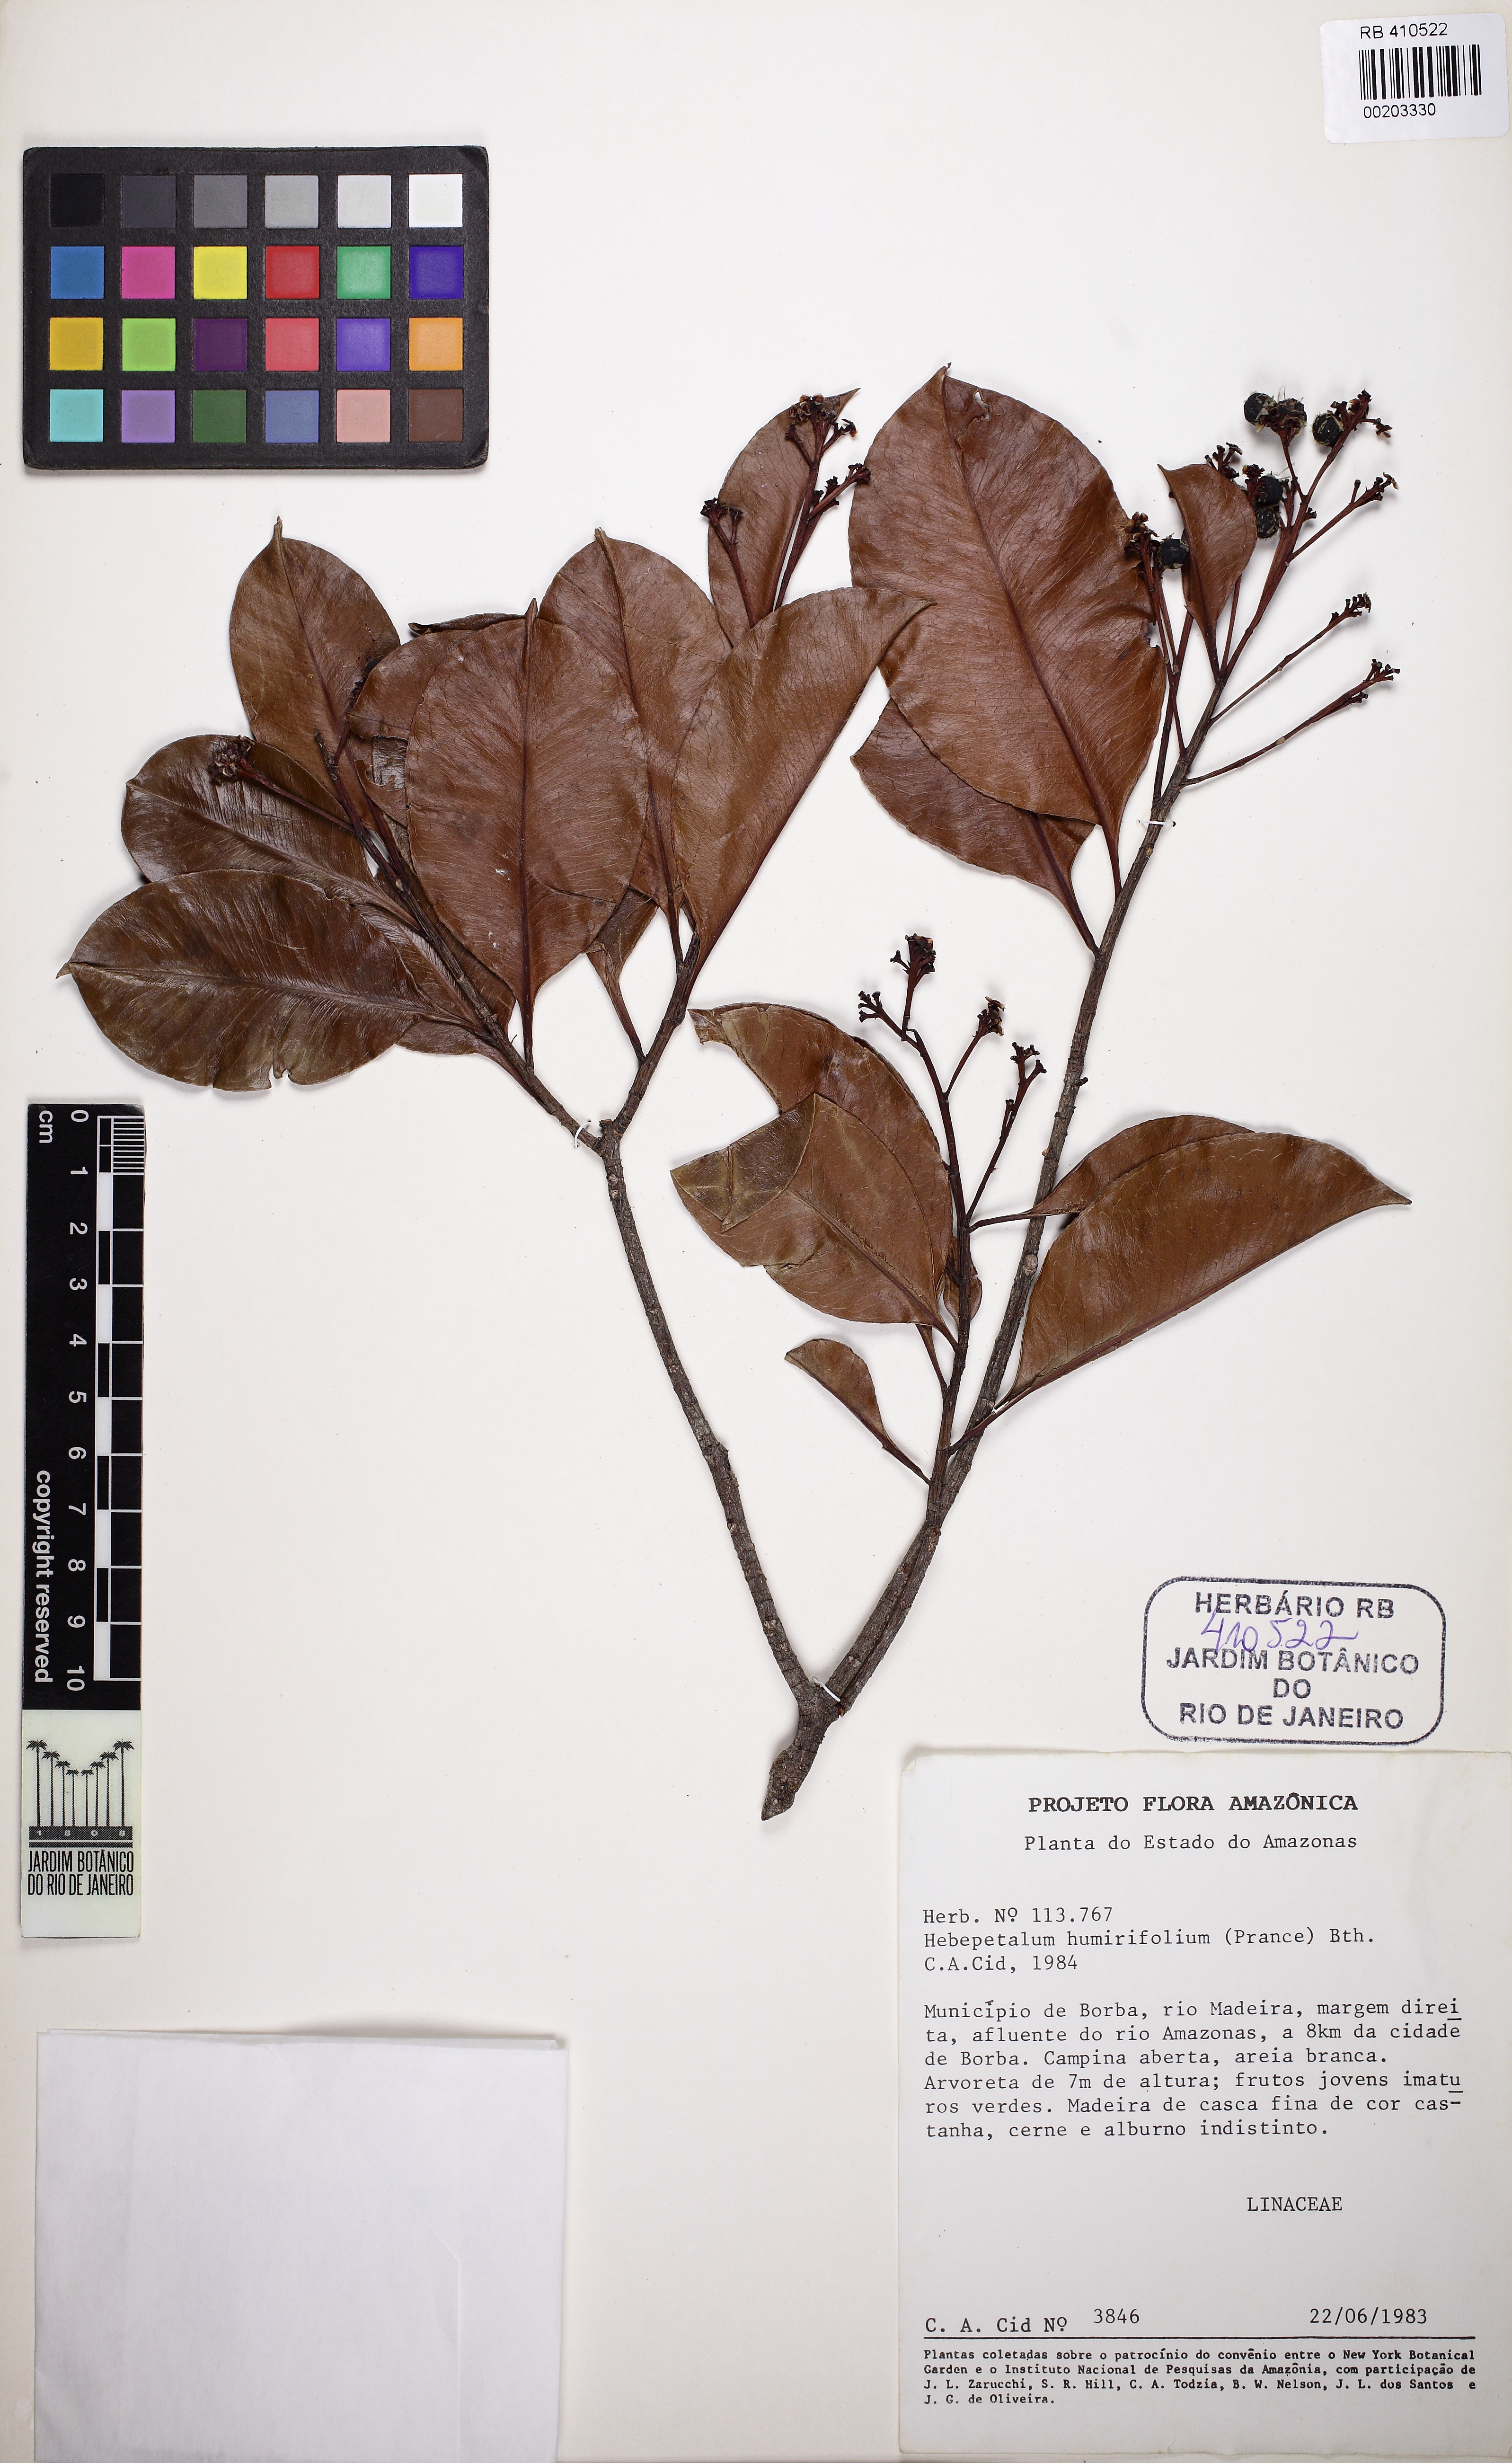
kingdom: Plantae
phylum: Tracheophyta
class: Magnoliopsida
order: Malpighiales
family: Linaceae
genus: Hebepetalum
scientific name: Hebepetalum humiriifolium
